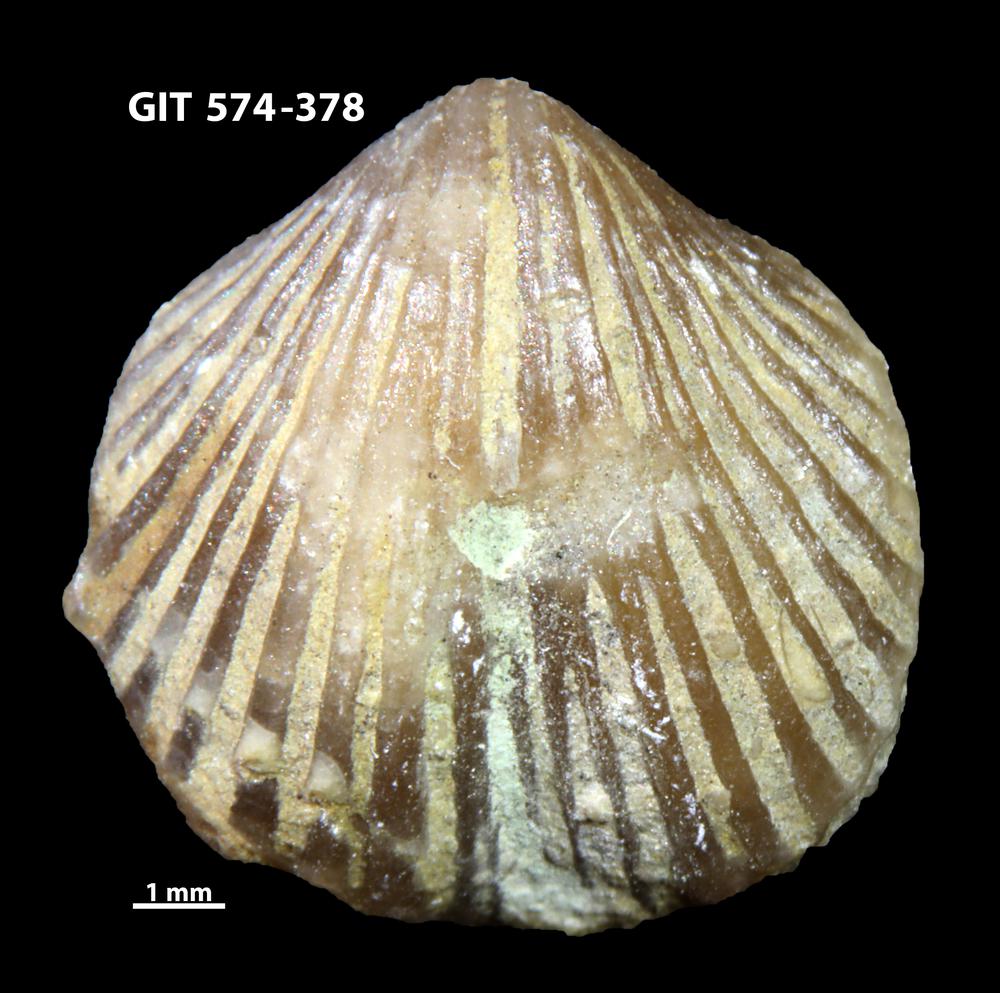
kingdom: Animalia
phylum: Brachiopoda
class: Rhynchonellata
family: Atrypinidae
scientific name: Atrypinidae
